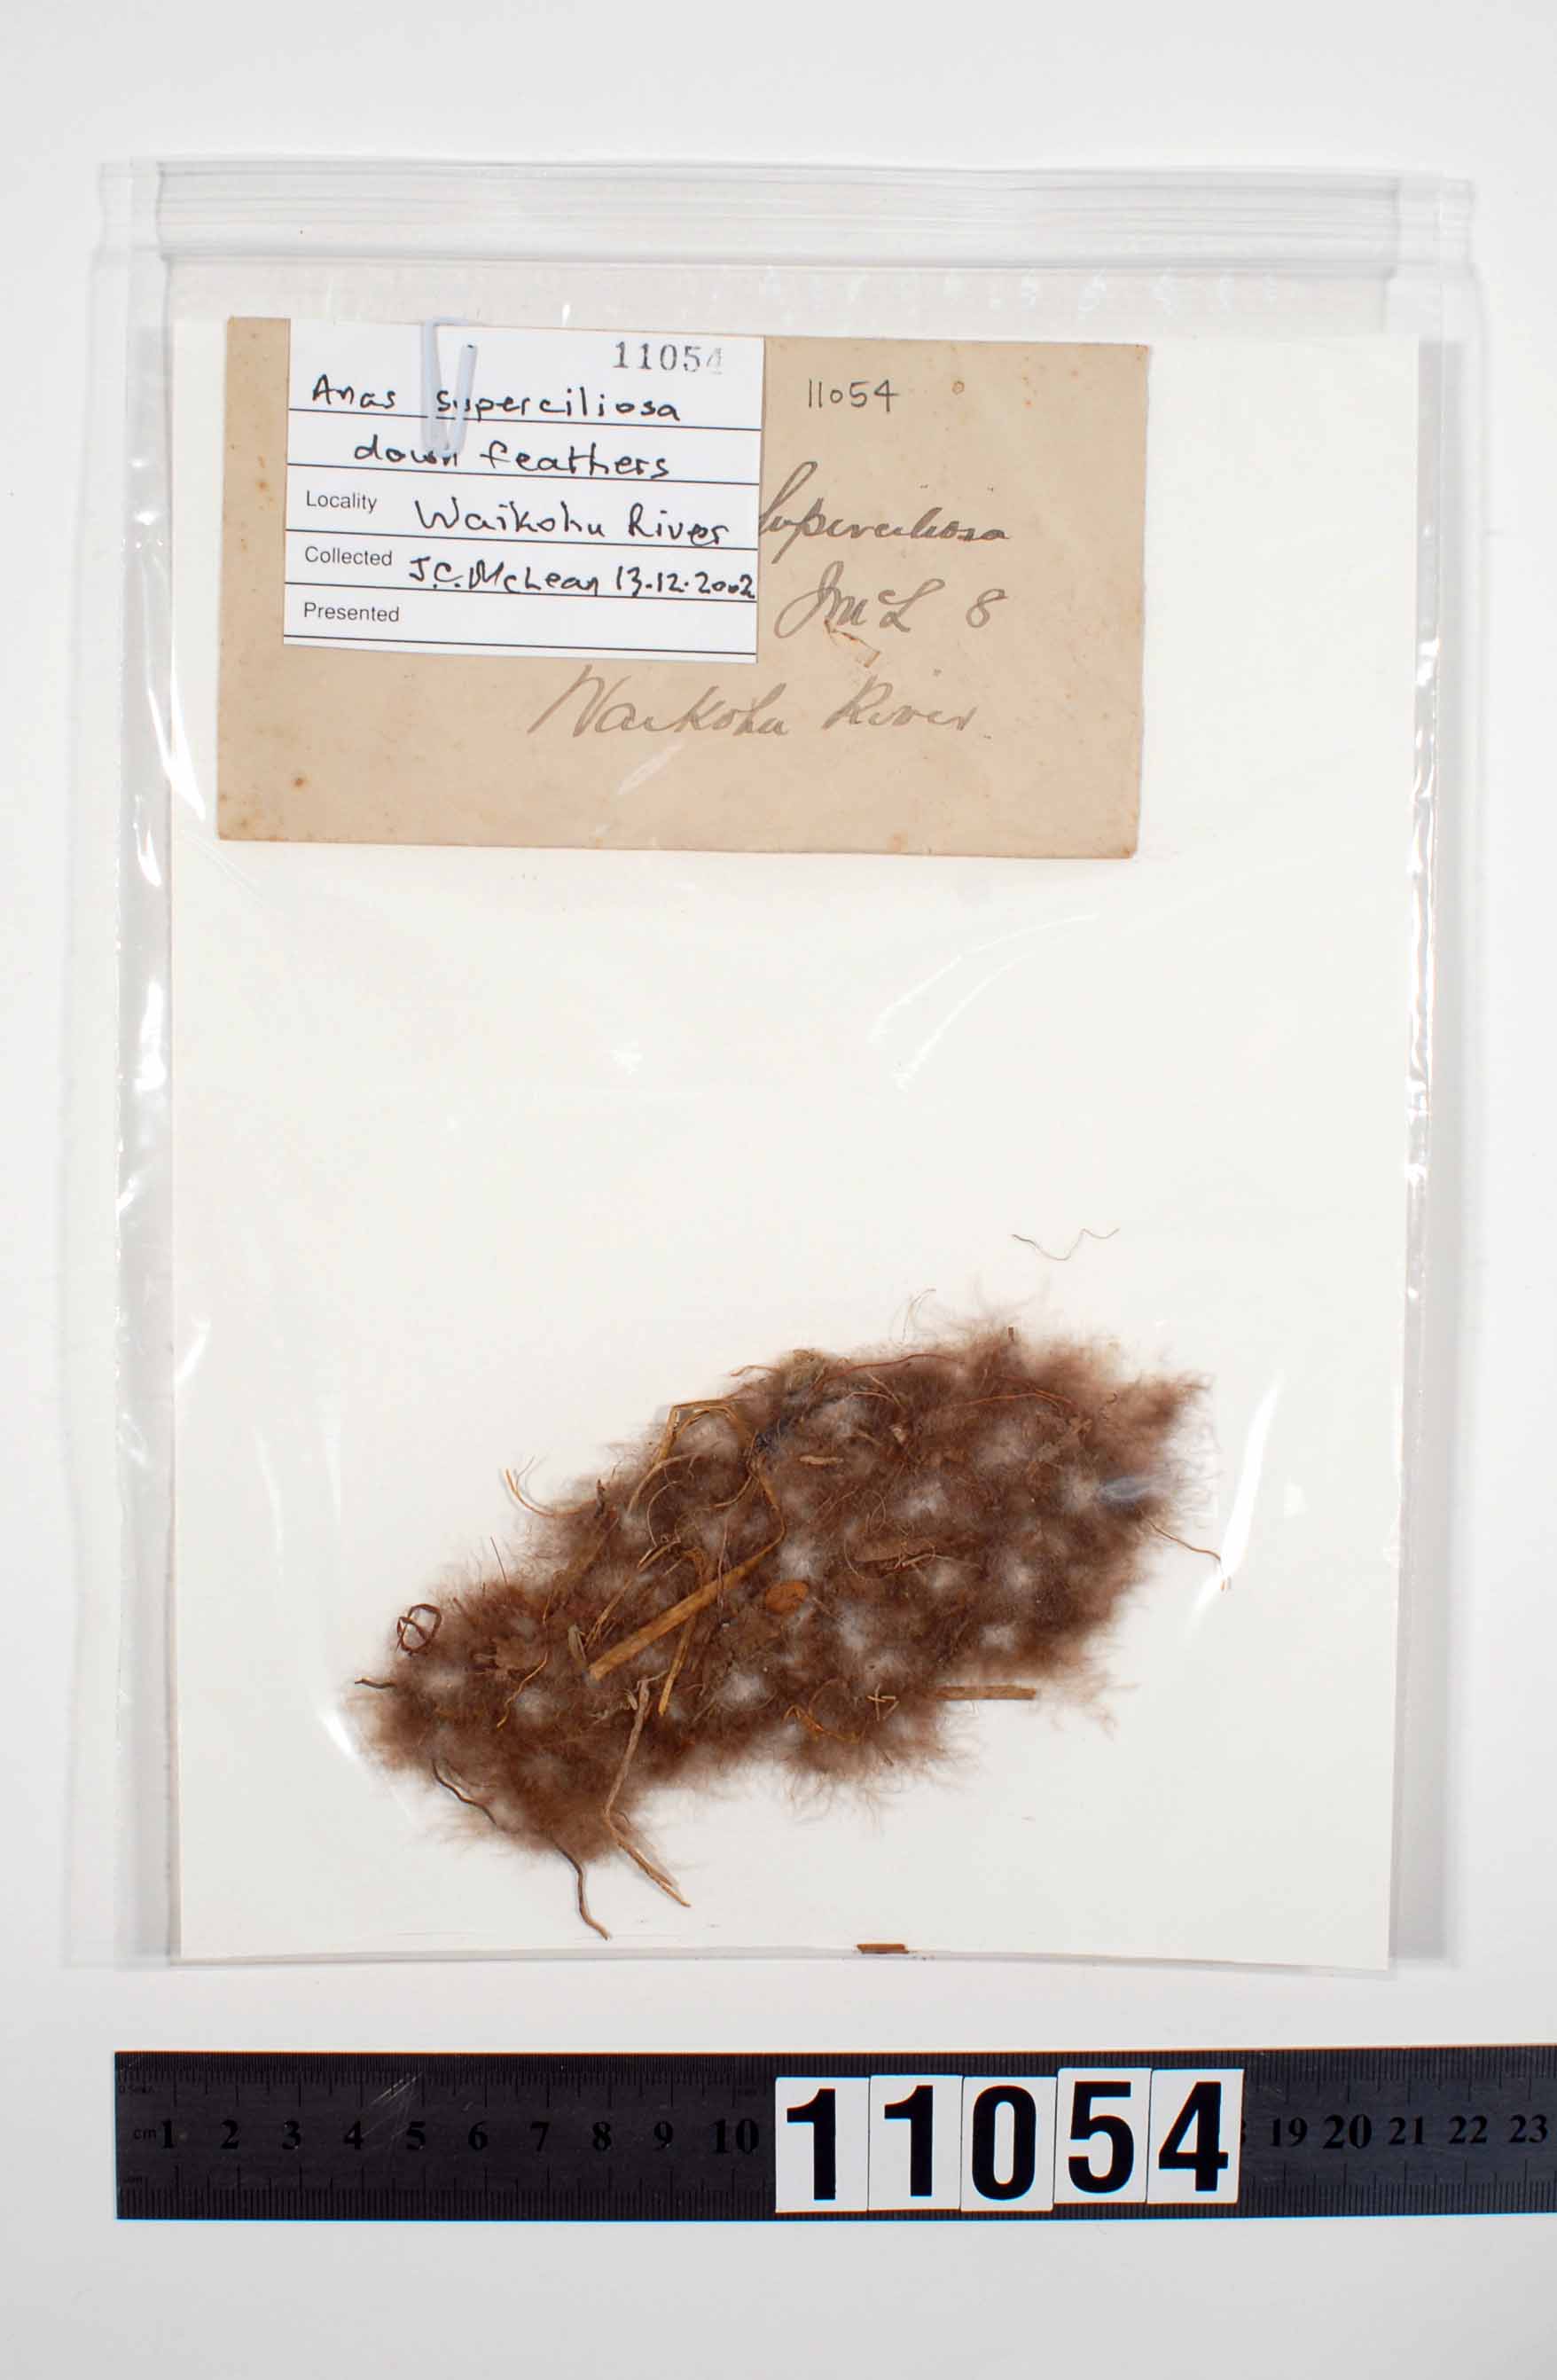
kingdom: Animalia
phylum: Chordata
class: Aves
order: Anseriformes
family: Anatidae
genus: Anas
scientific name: Anas superciliosa
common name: Pacific black duck
